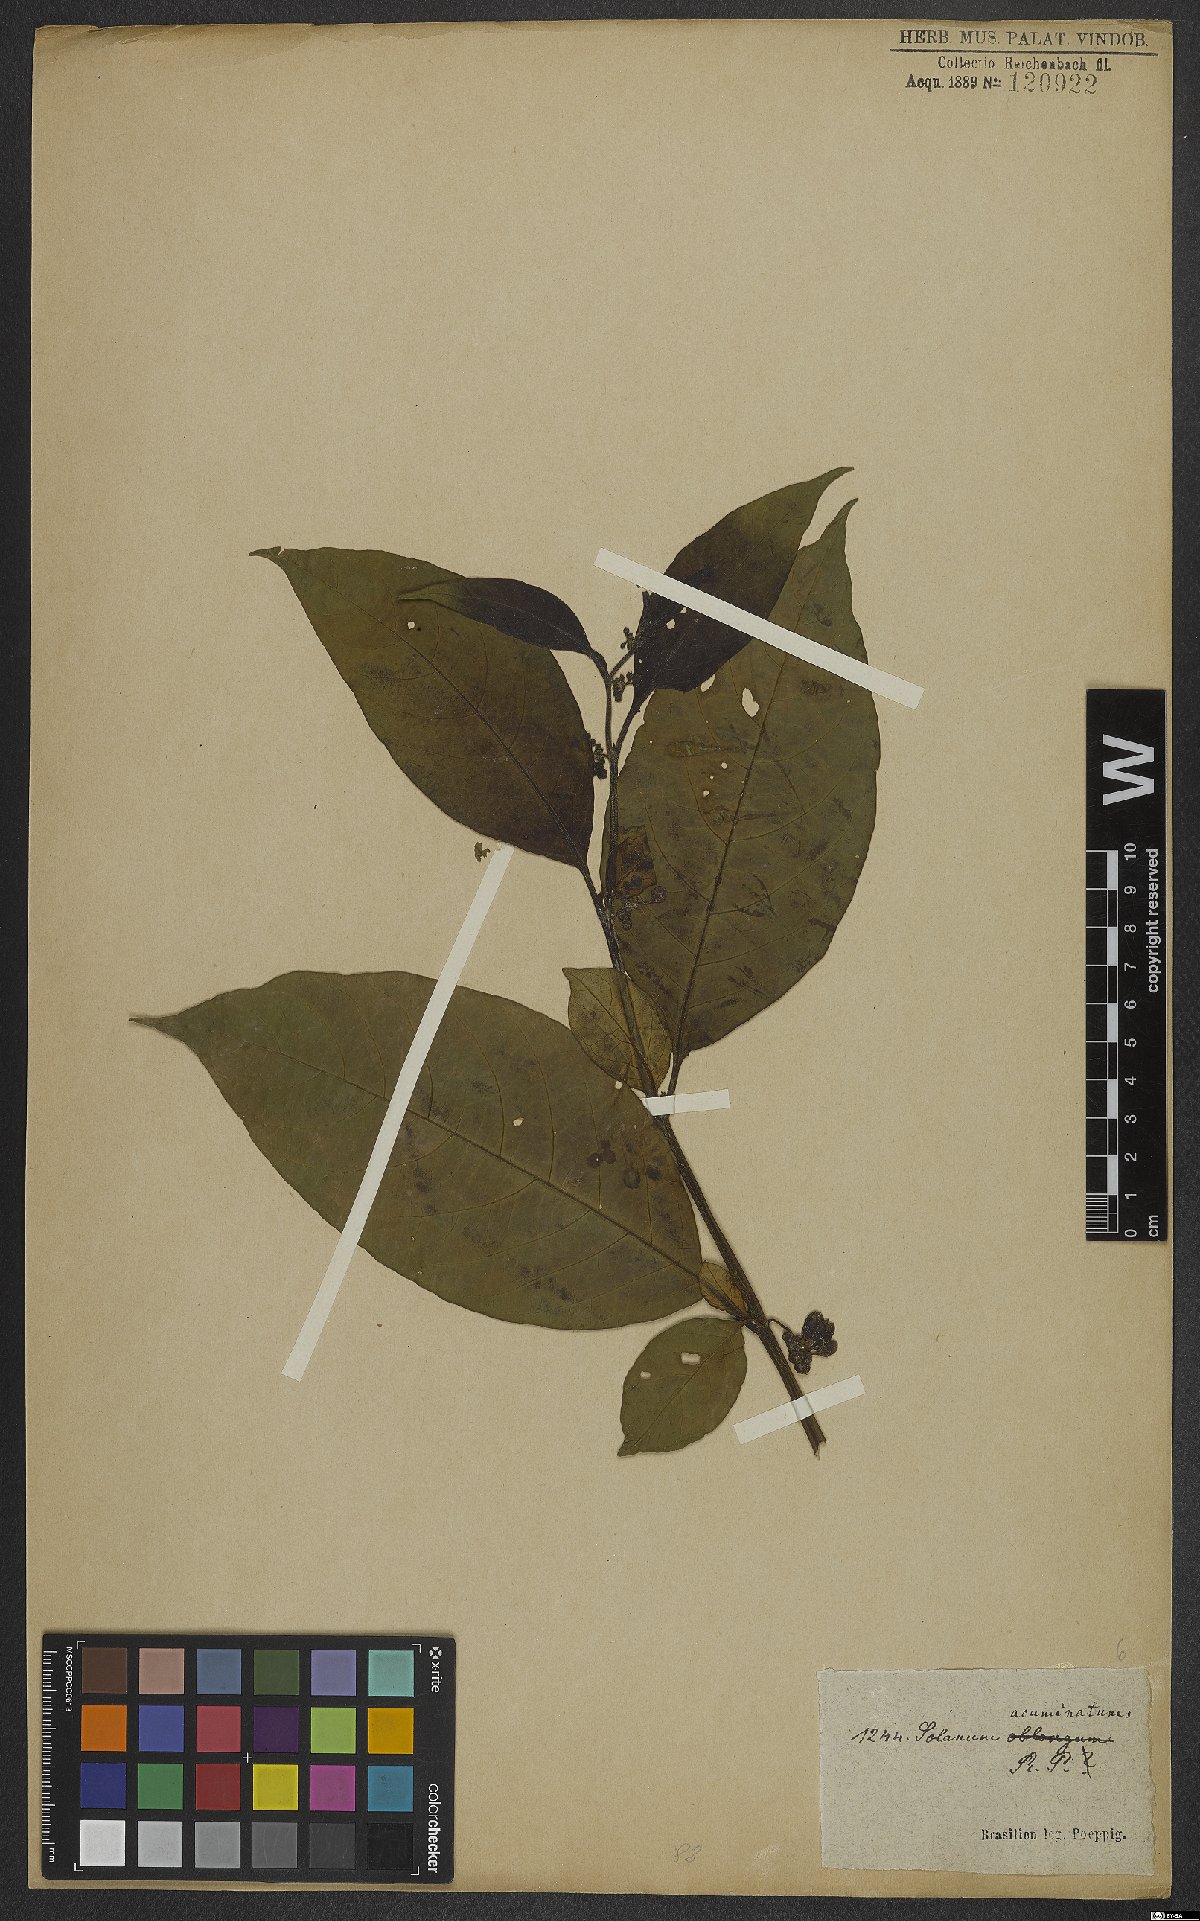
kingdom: Plantae
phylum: Tracheophyta
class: Magnoliopsida
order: Solanales
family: Solanaceae
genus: Solanum
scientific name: Solanum acuminatum
